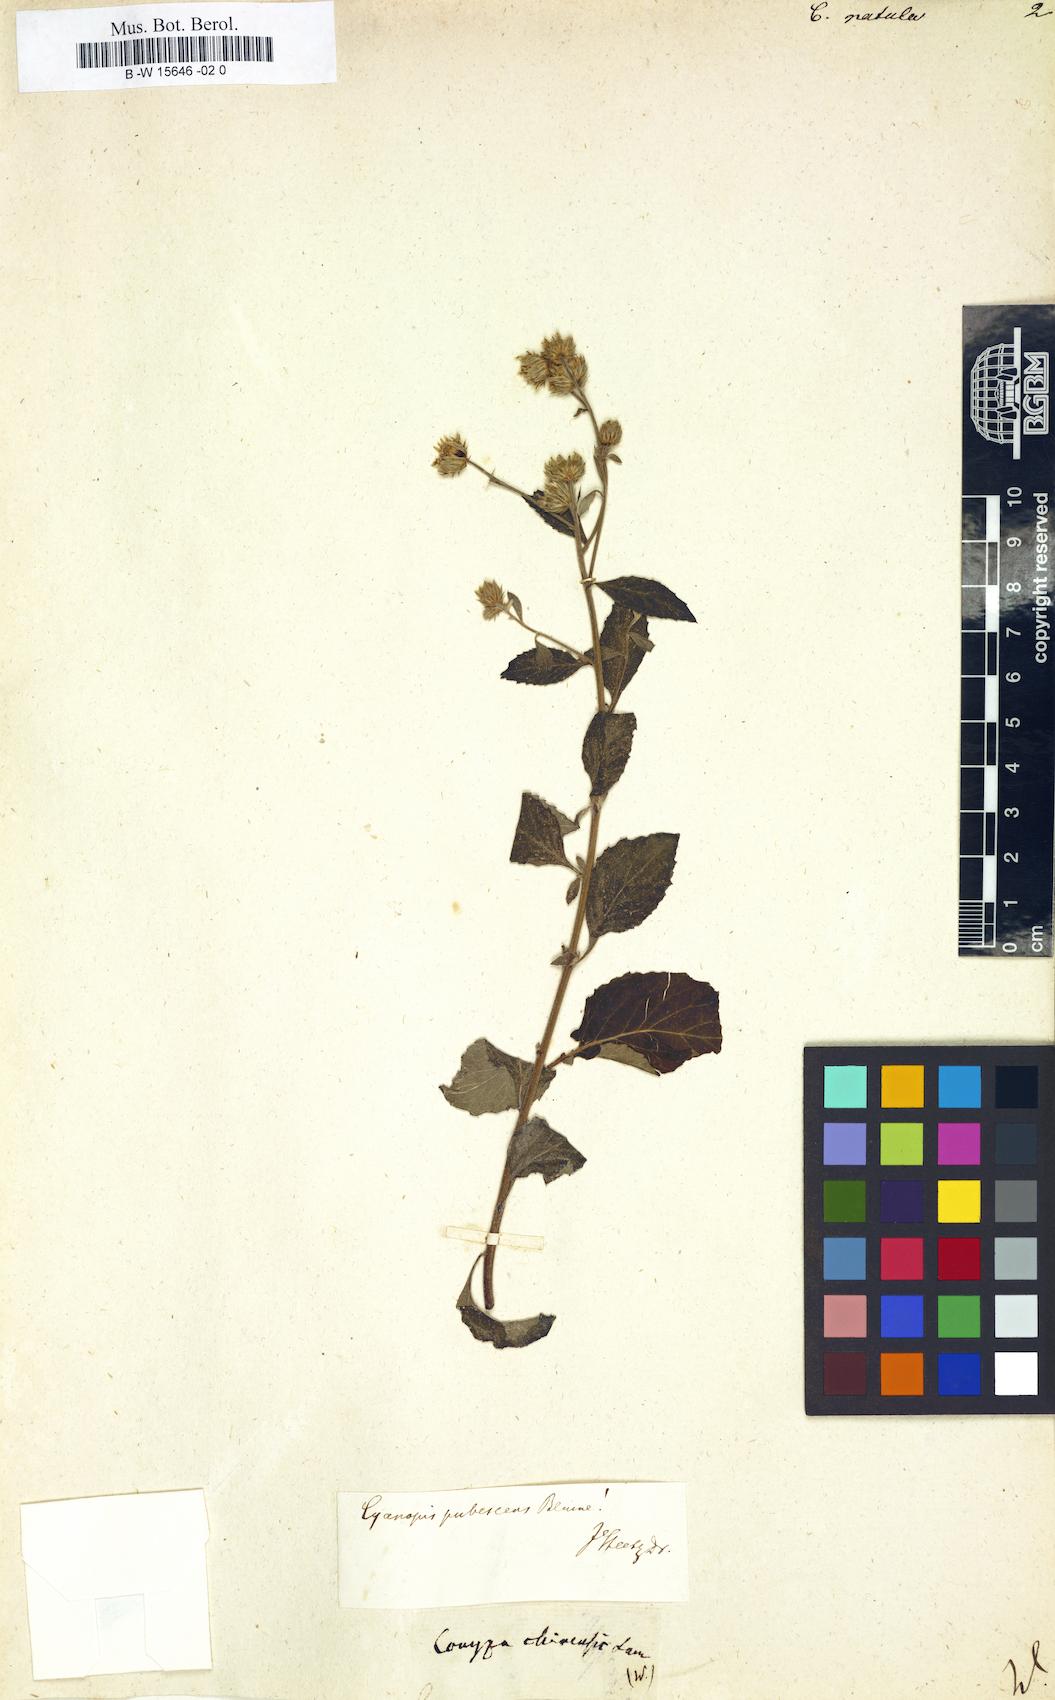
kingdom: Plantae
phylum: Tracheophyta
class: Magnoliopsida
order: Asterales
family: Asteraceae
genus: Cyanthillium
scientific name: Cyanthillium patulum
